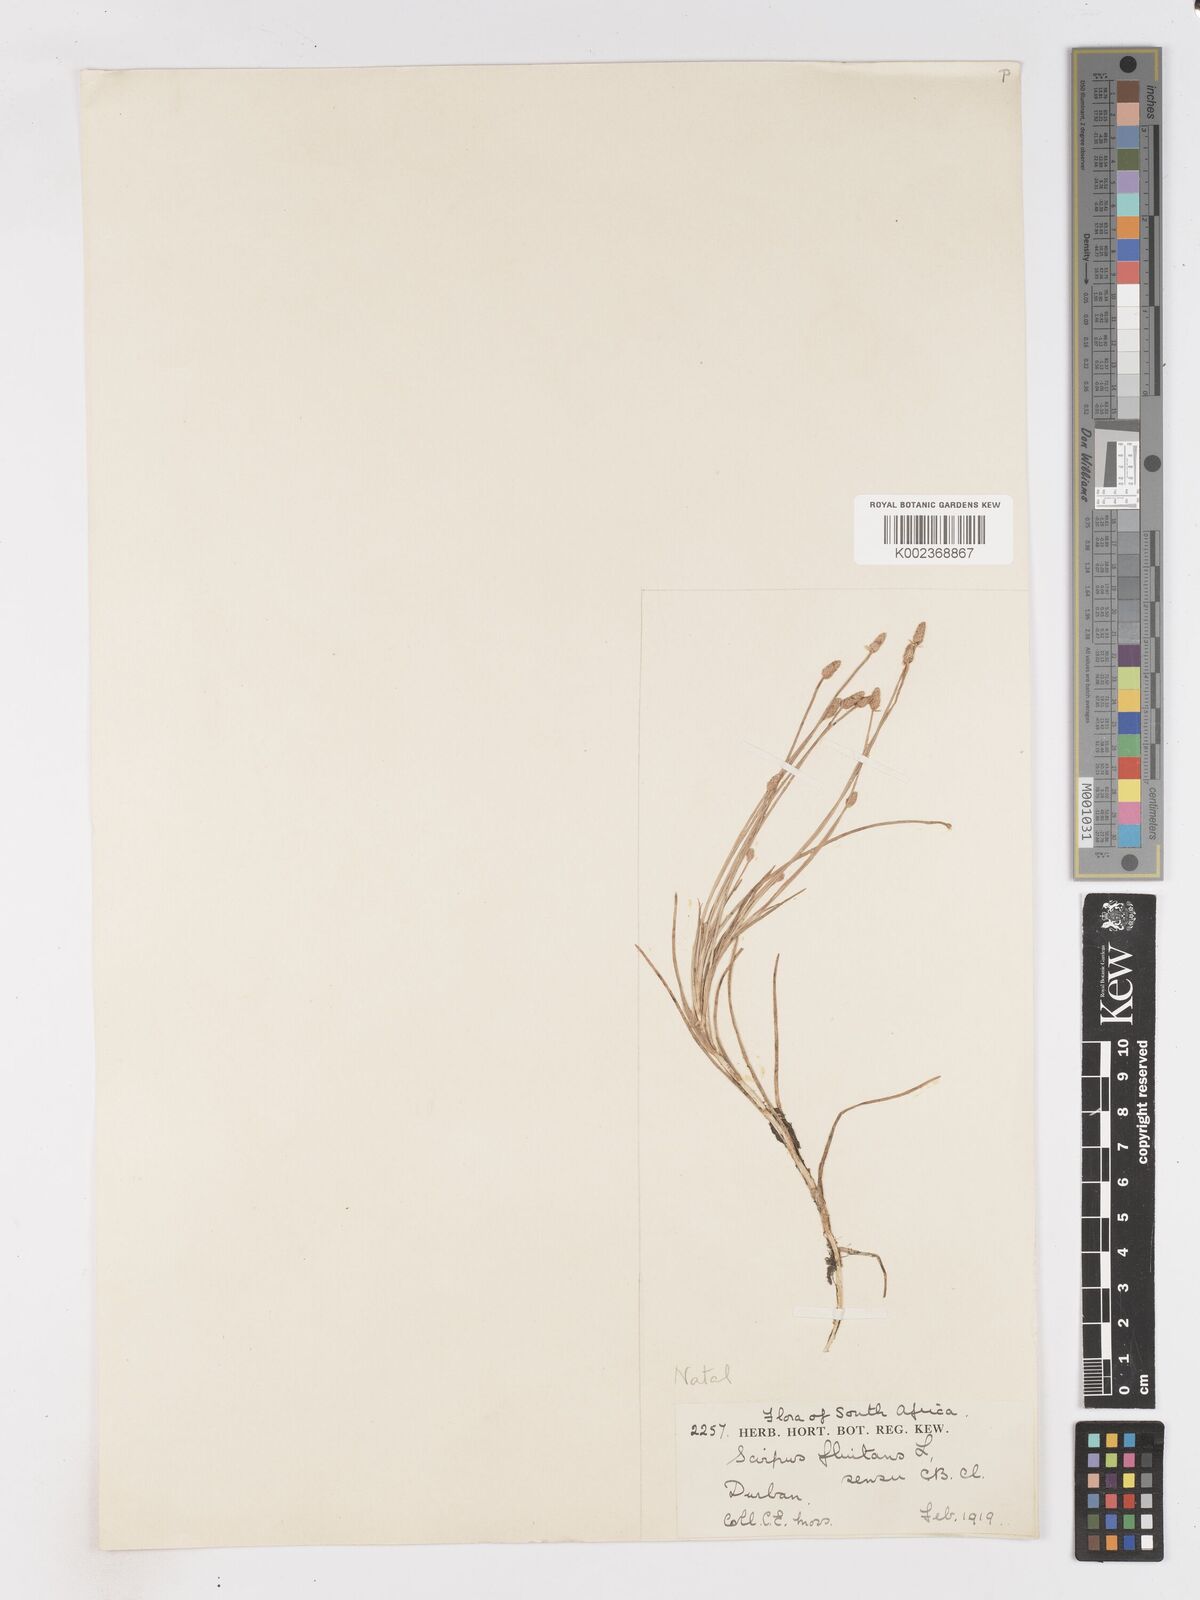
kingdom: Plantae
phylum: Tracheophyta
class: Liliopsida
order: Poales
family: Cyperaceae
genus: Isolepis
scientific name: Isolepis fluitans
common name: Floating club-rush
